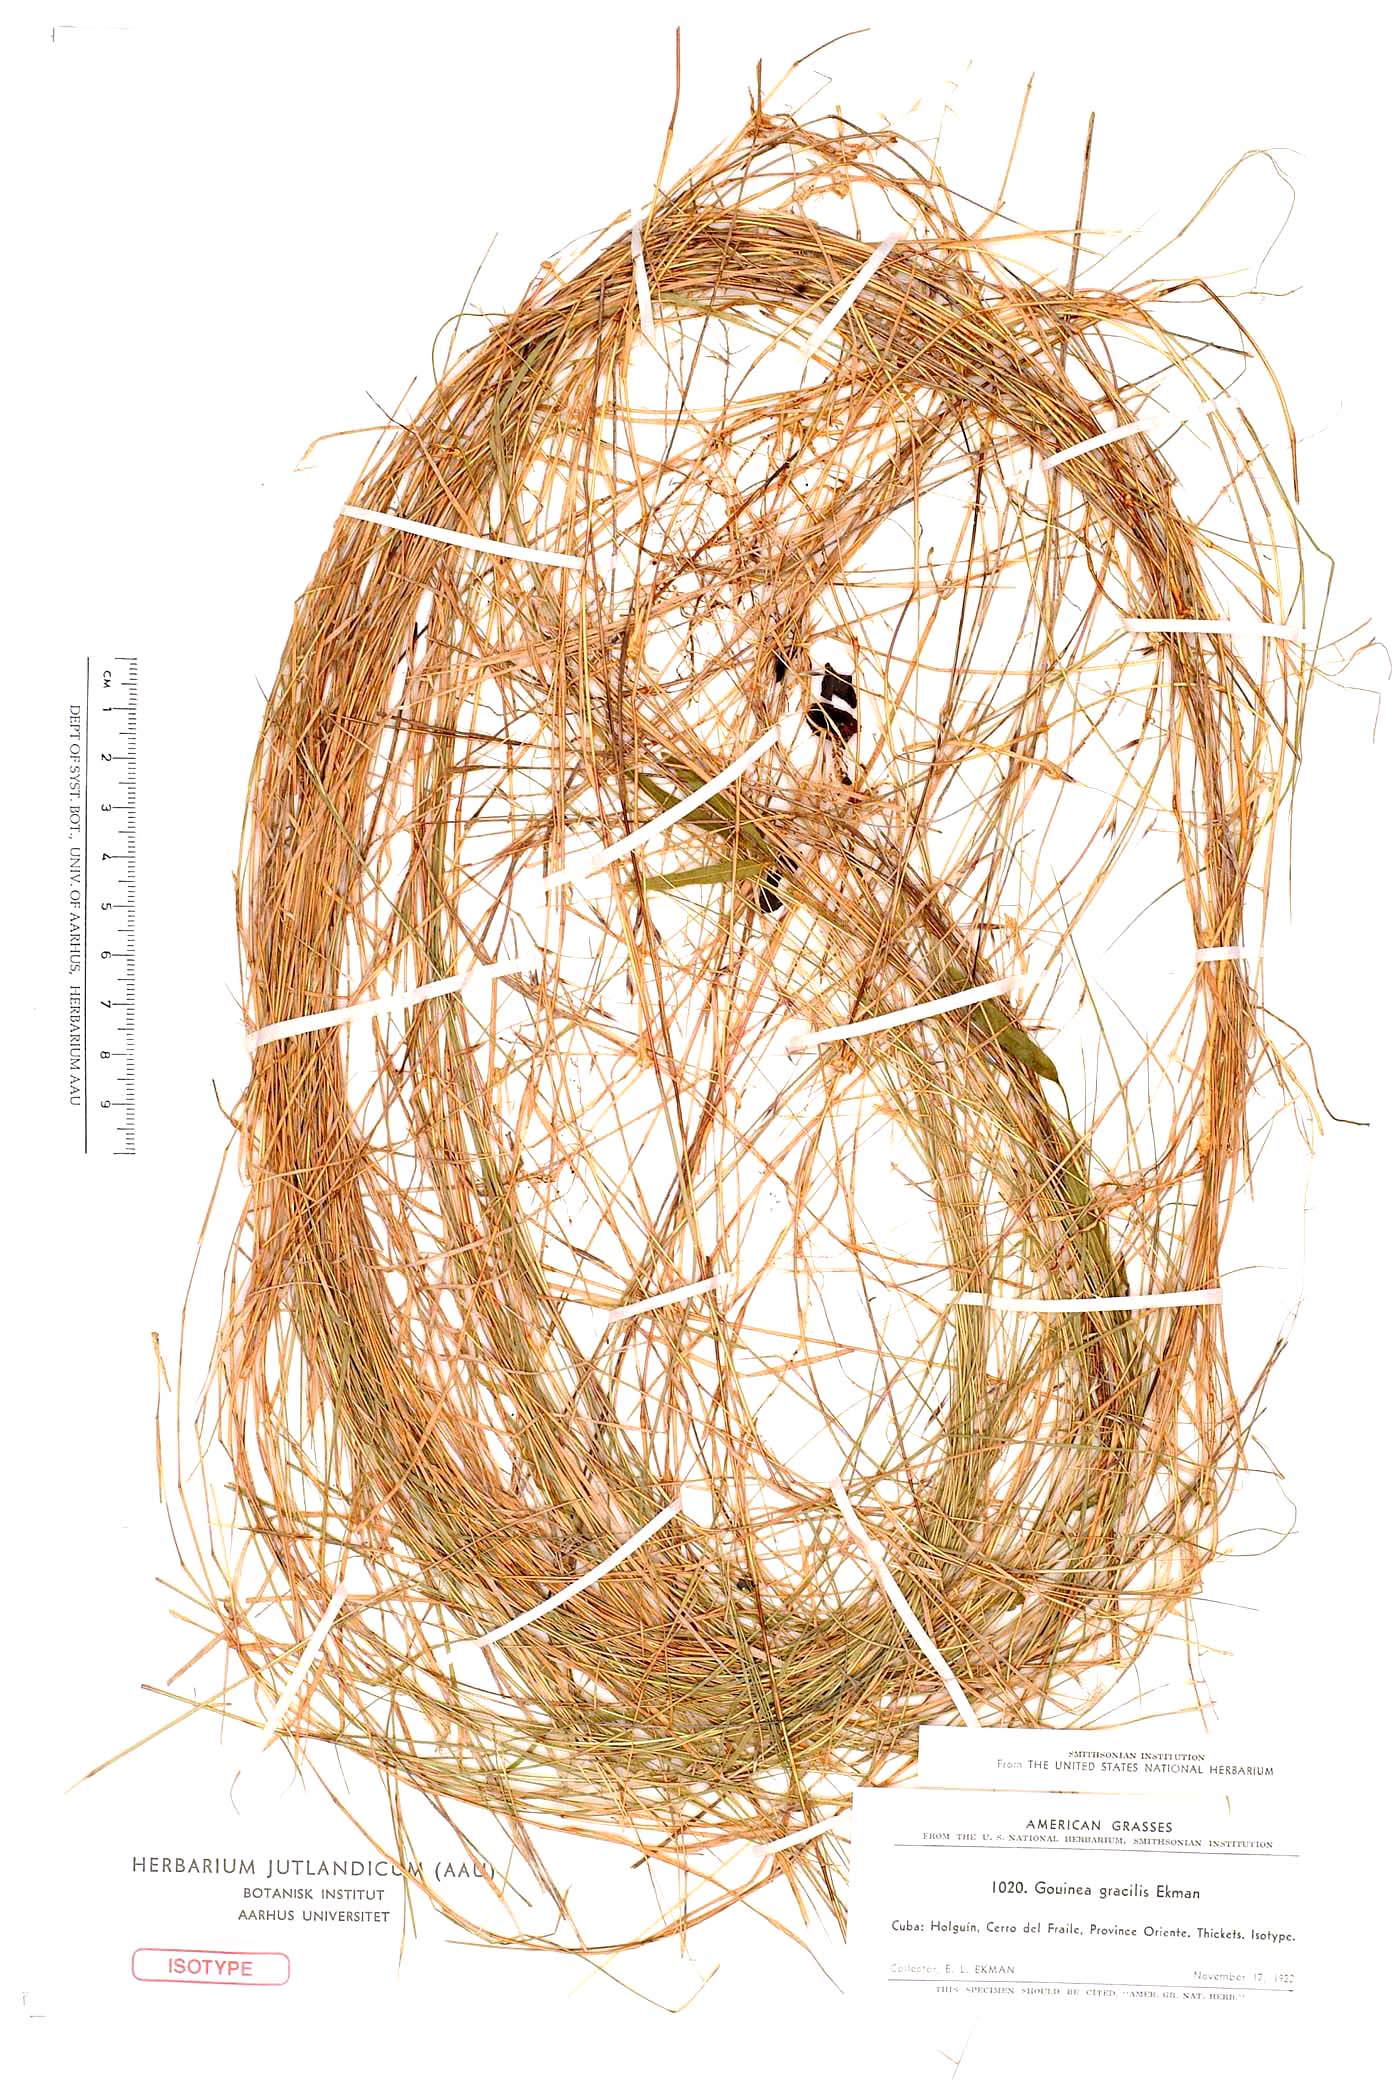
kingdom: Plantae
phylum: Tracheophyta
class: Liliopsida
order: Poales
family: Poaceae
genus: Gouinia
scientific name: Gouinia gracilis
